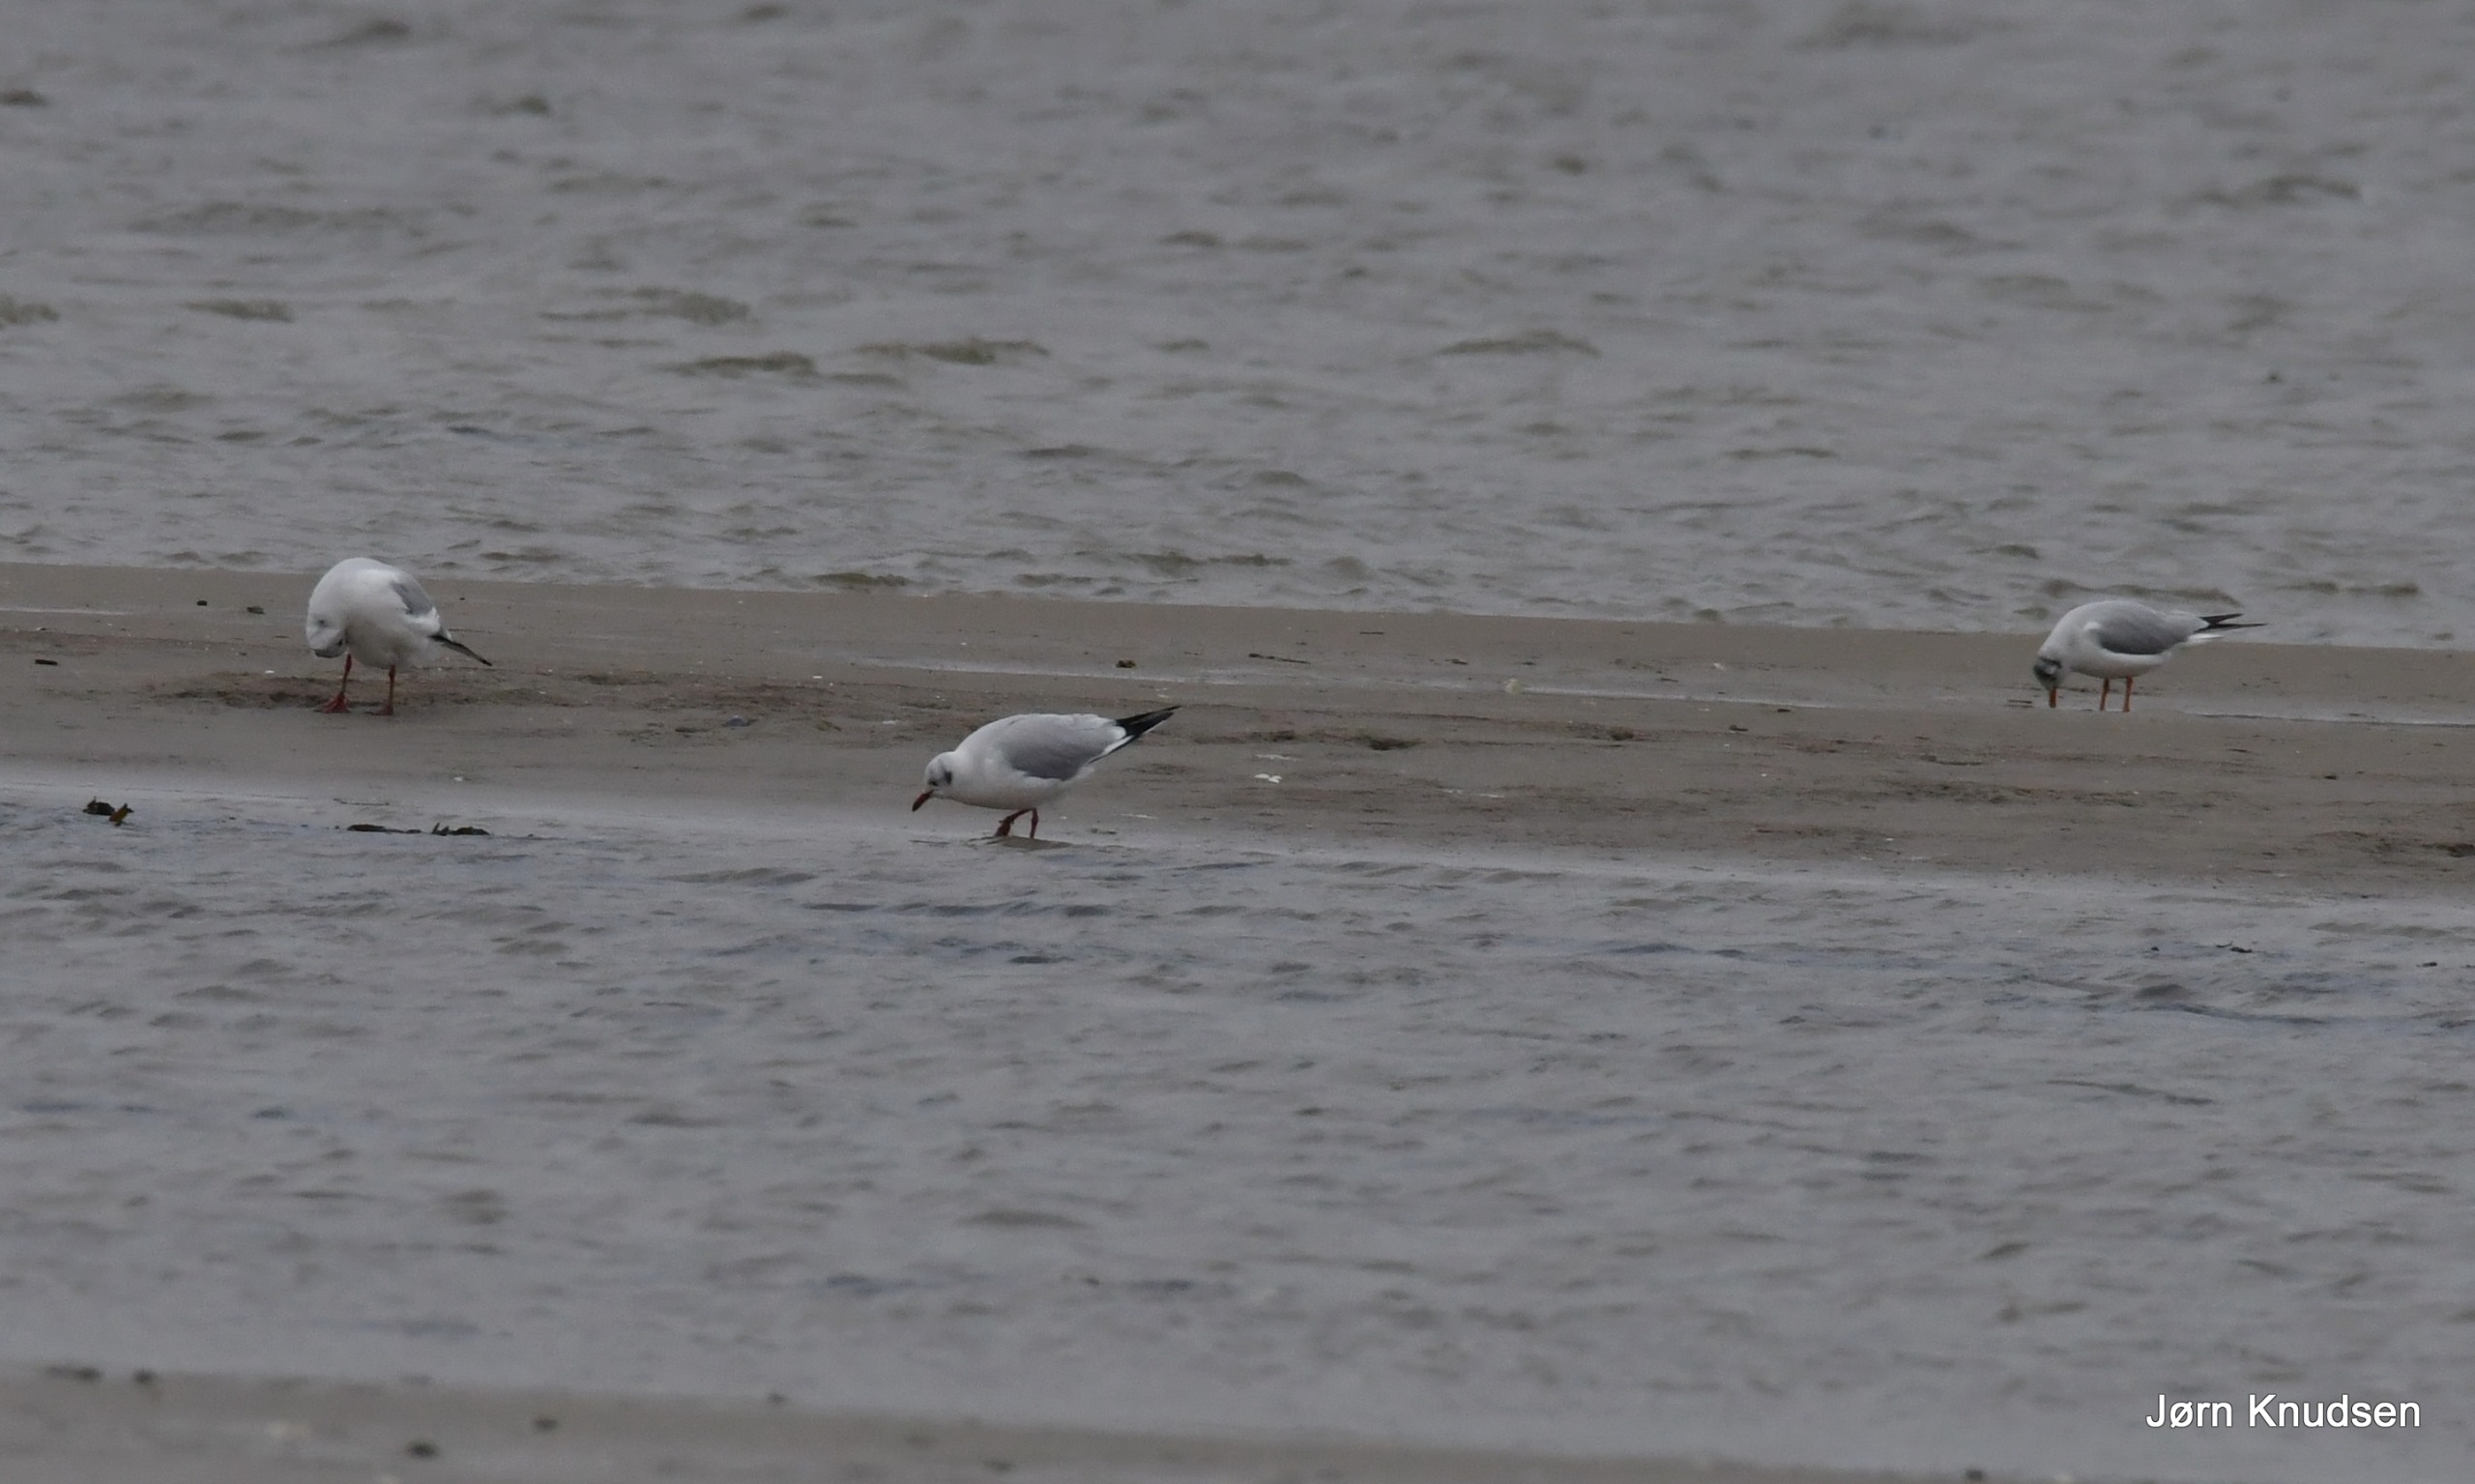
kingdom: Animalia
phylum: Chordata
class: Aves
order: Charadriiformes
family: Laridae
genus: Chroicocephalus
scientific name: Chroicocephalus ridibundus
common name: Hættemåge
